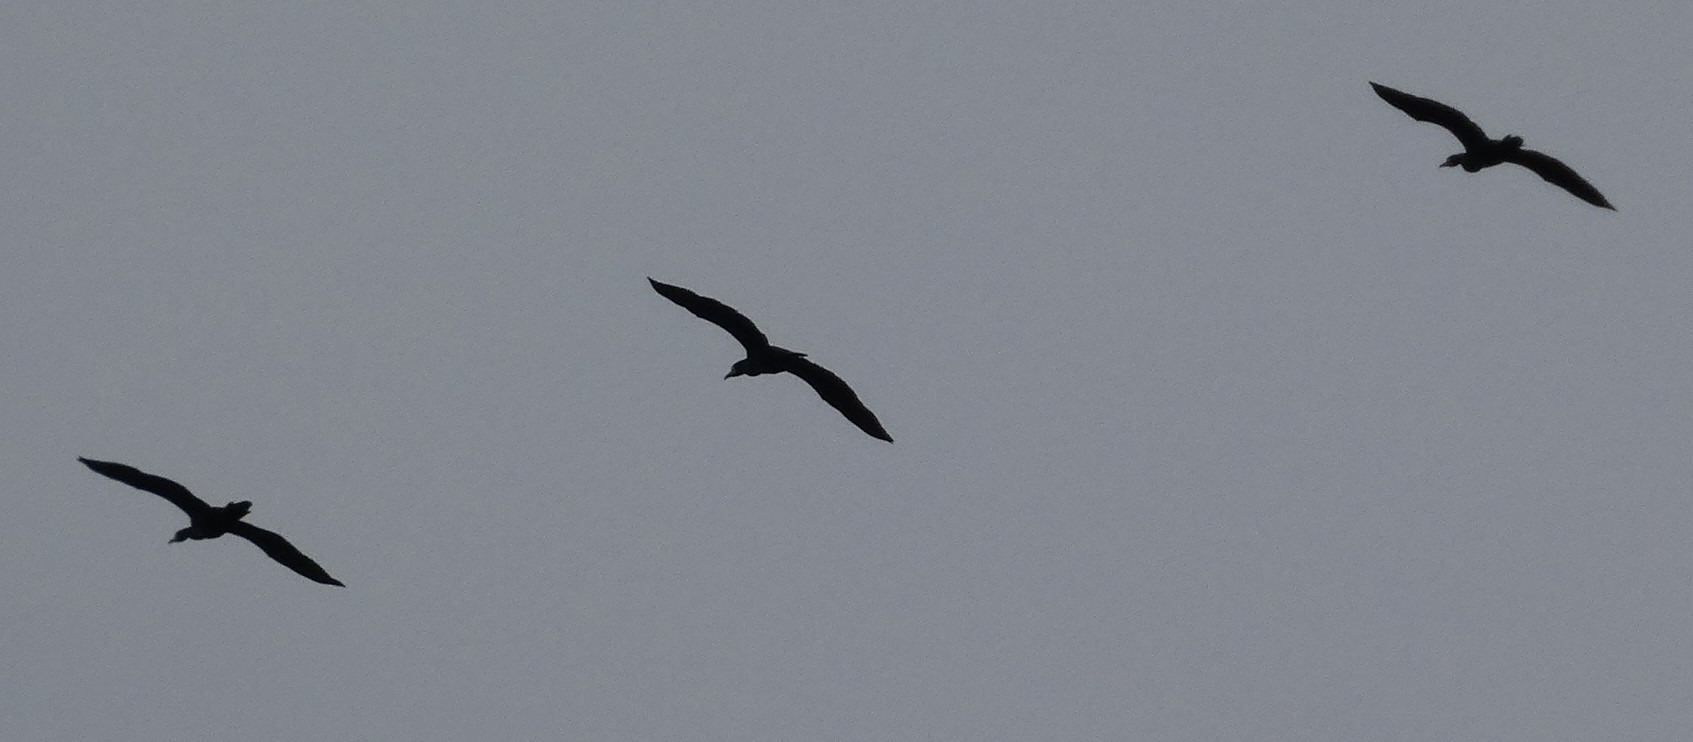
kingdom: Animalia
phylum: Chordata
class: Aves
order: Suliformes
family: Phalacrocoracidae
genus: Phalacrocorax
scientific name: Phalacrocorax carbo
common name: Skarv
